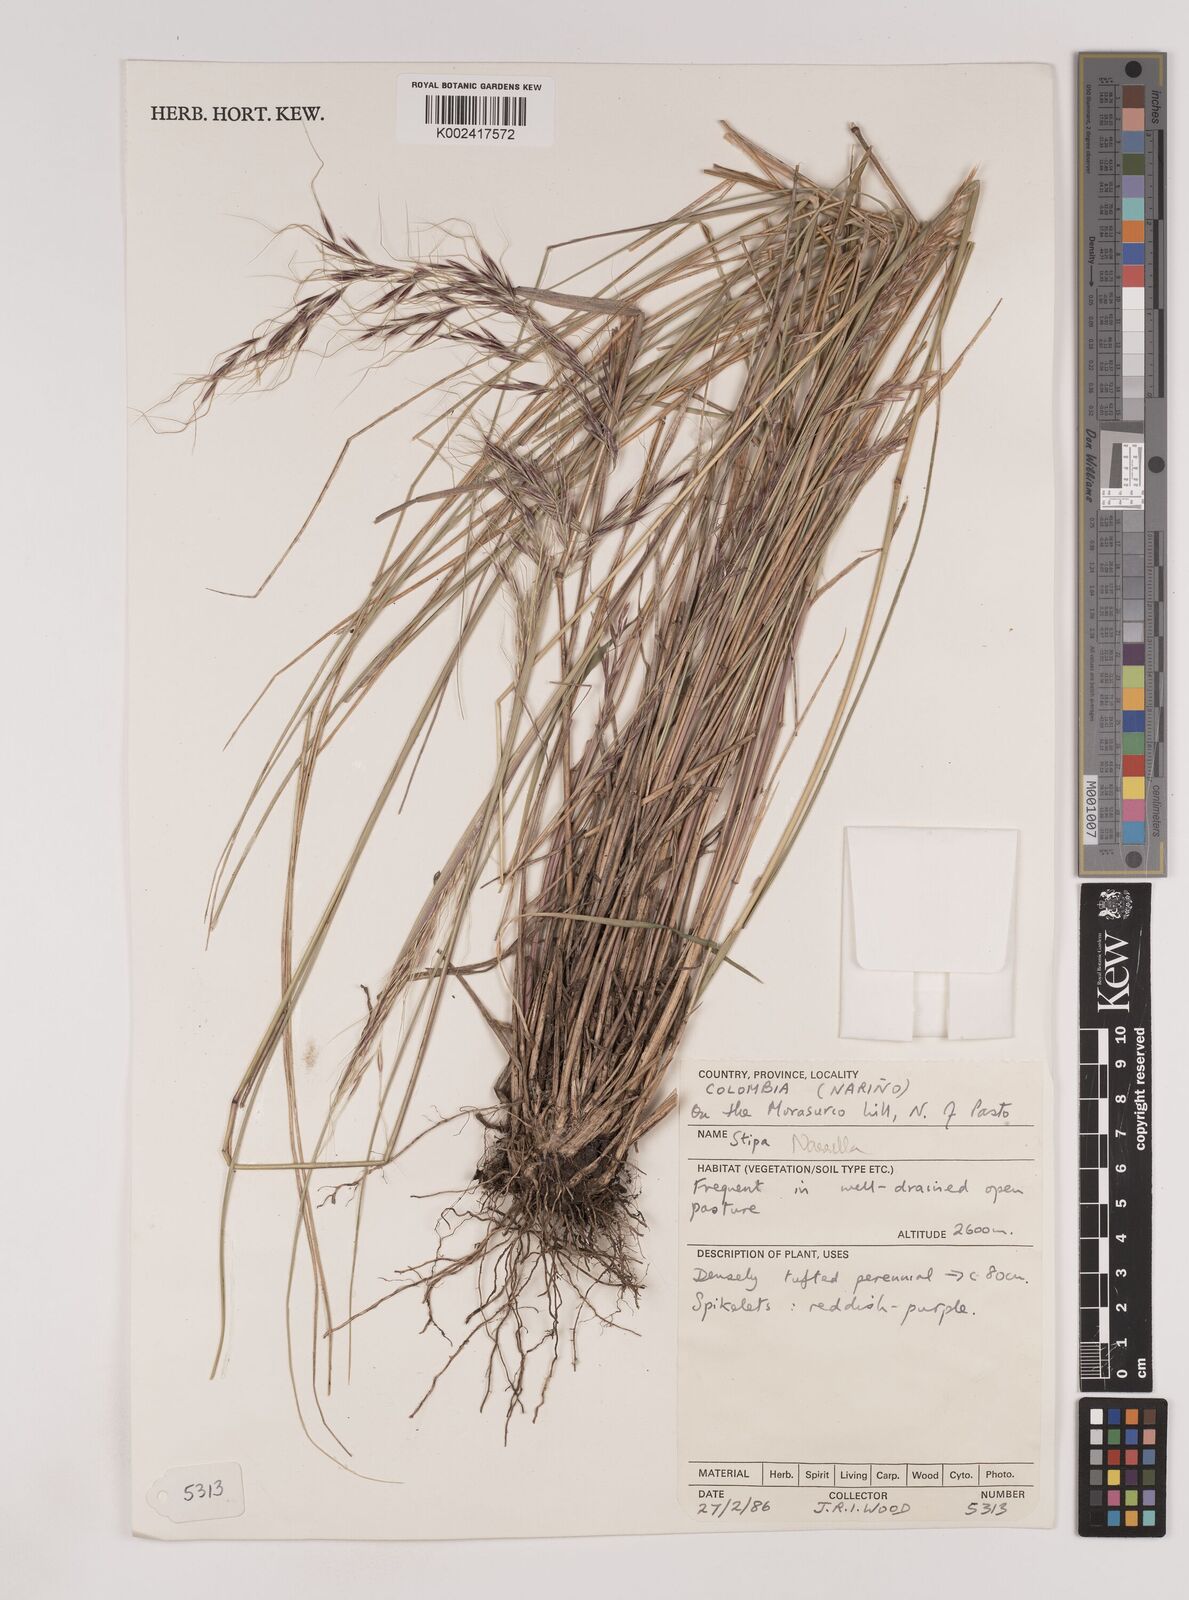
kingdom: Plantae
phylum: Tracheophyta
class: Liliopsida
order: Poales
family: Poaceae
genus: Nassella
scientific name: Nassella
